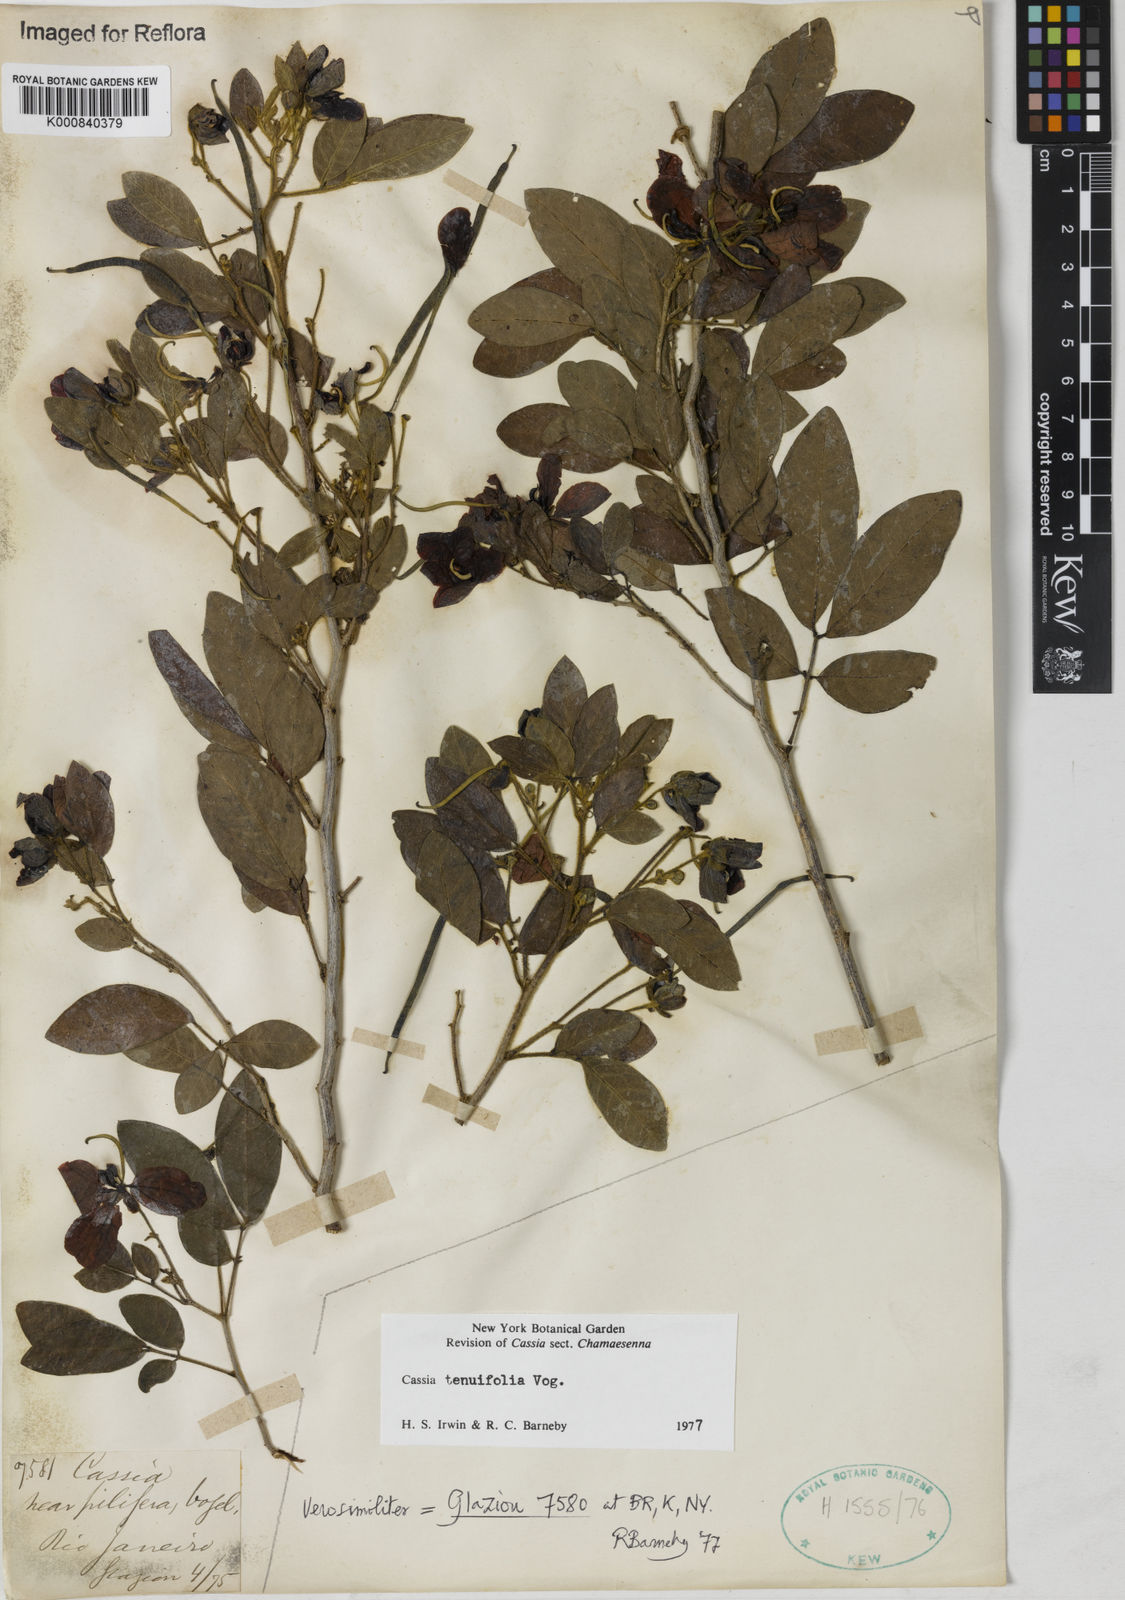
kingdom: Plantae
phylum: Tracheophyta
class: Magnoliopsida
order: Fabales
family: Fabaceae
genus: Senna
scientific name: Senna tenuifolia
